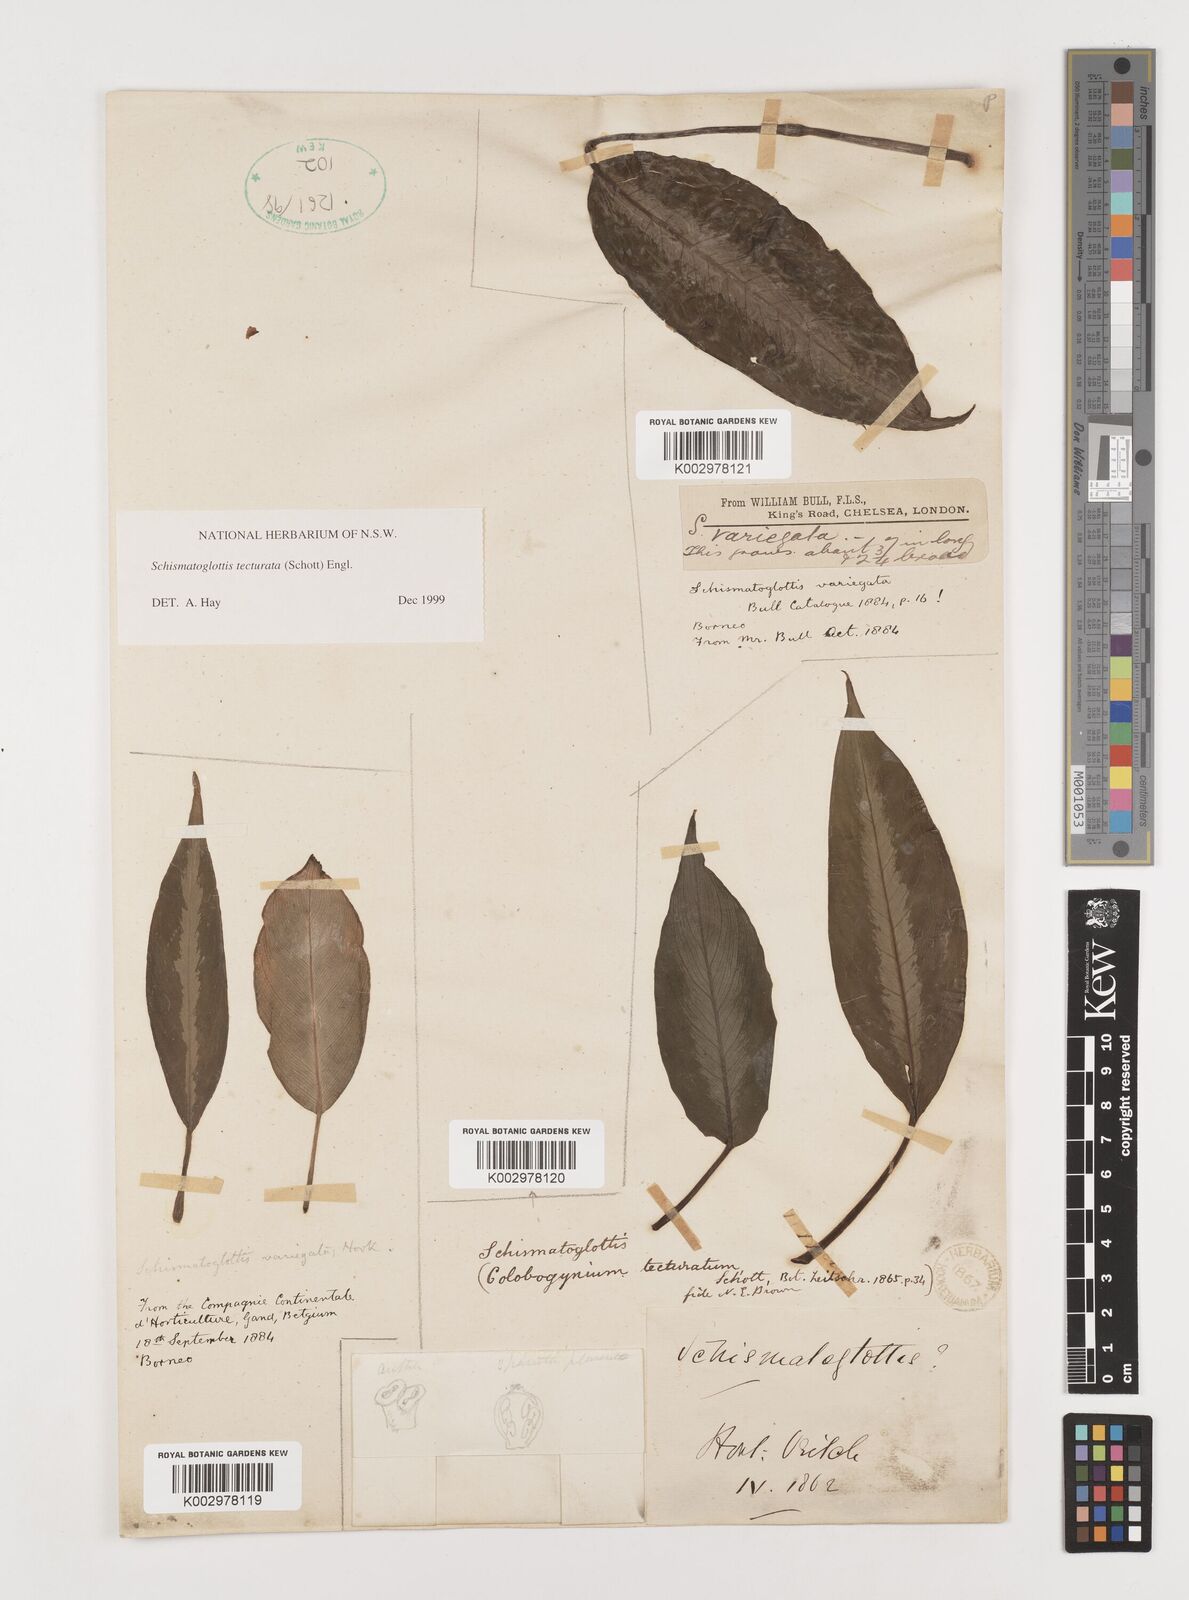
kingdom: Plantae
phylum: Tracheophyta
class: Liliopsida
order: Zingiberales
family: Costaceae
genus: Colobogynium
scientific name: Colobogynium variegatum
